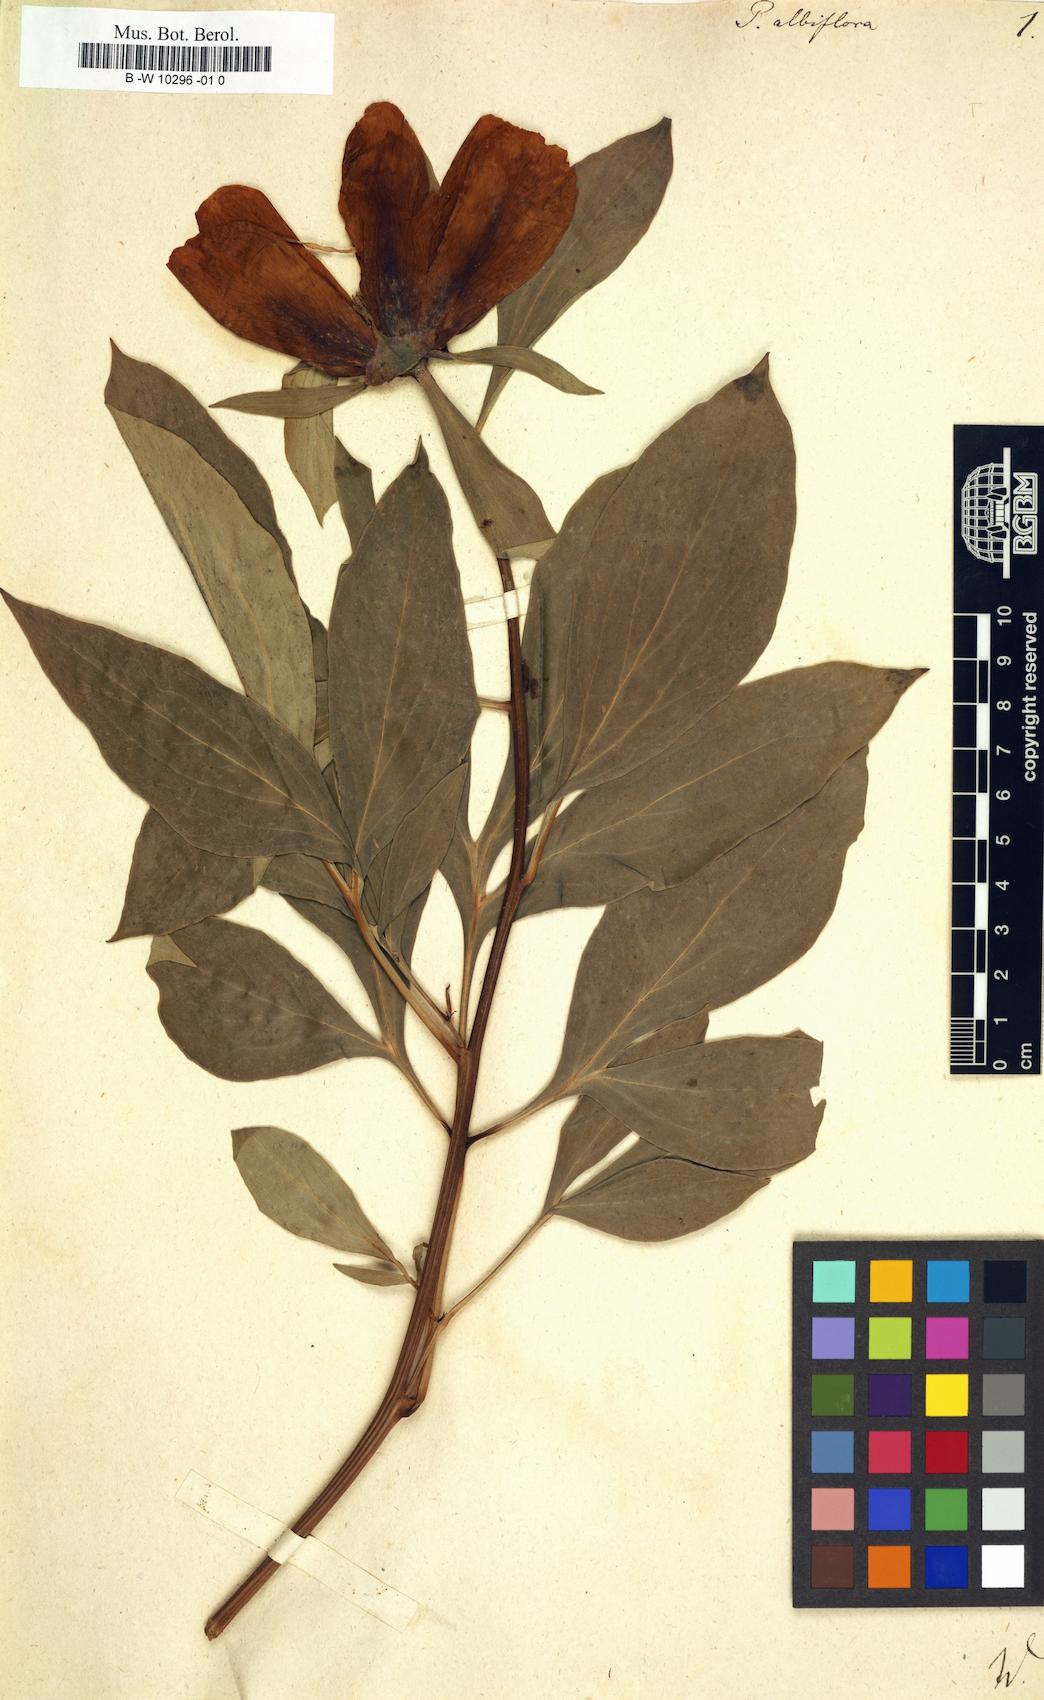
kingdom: Plantae
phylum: Tracheophyta
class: Magnoliopsida
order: Saxifragales
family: Paeoniaceae
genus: Paeonia
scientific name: Paeonia lactiflora
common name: Chinese peony
